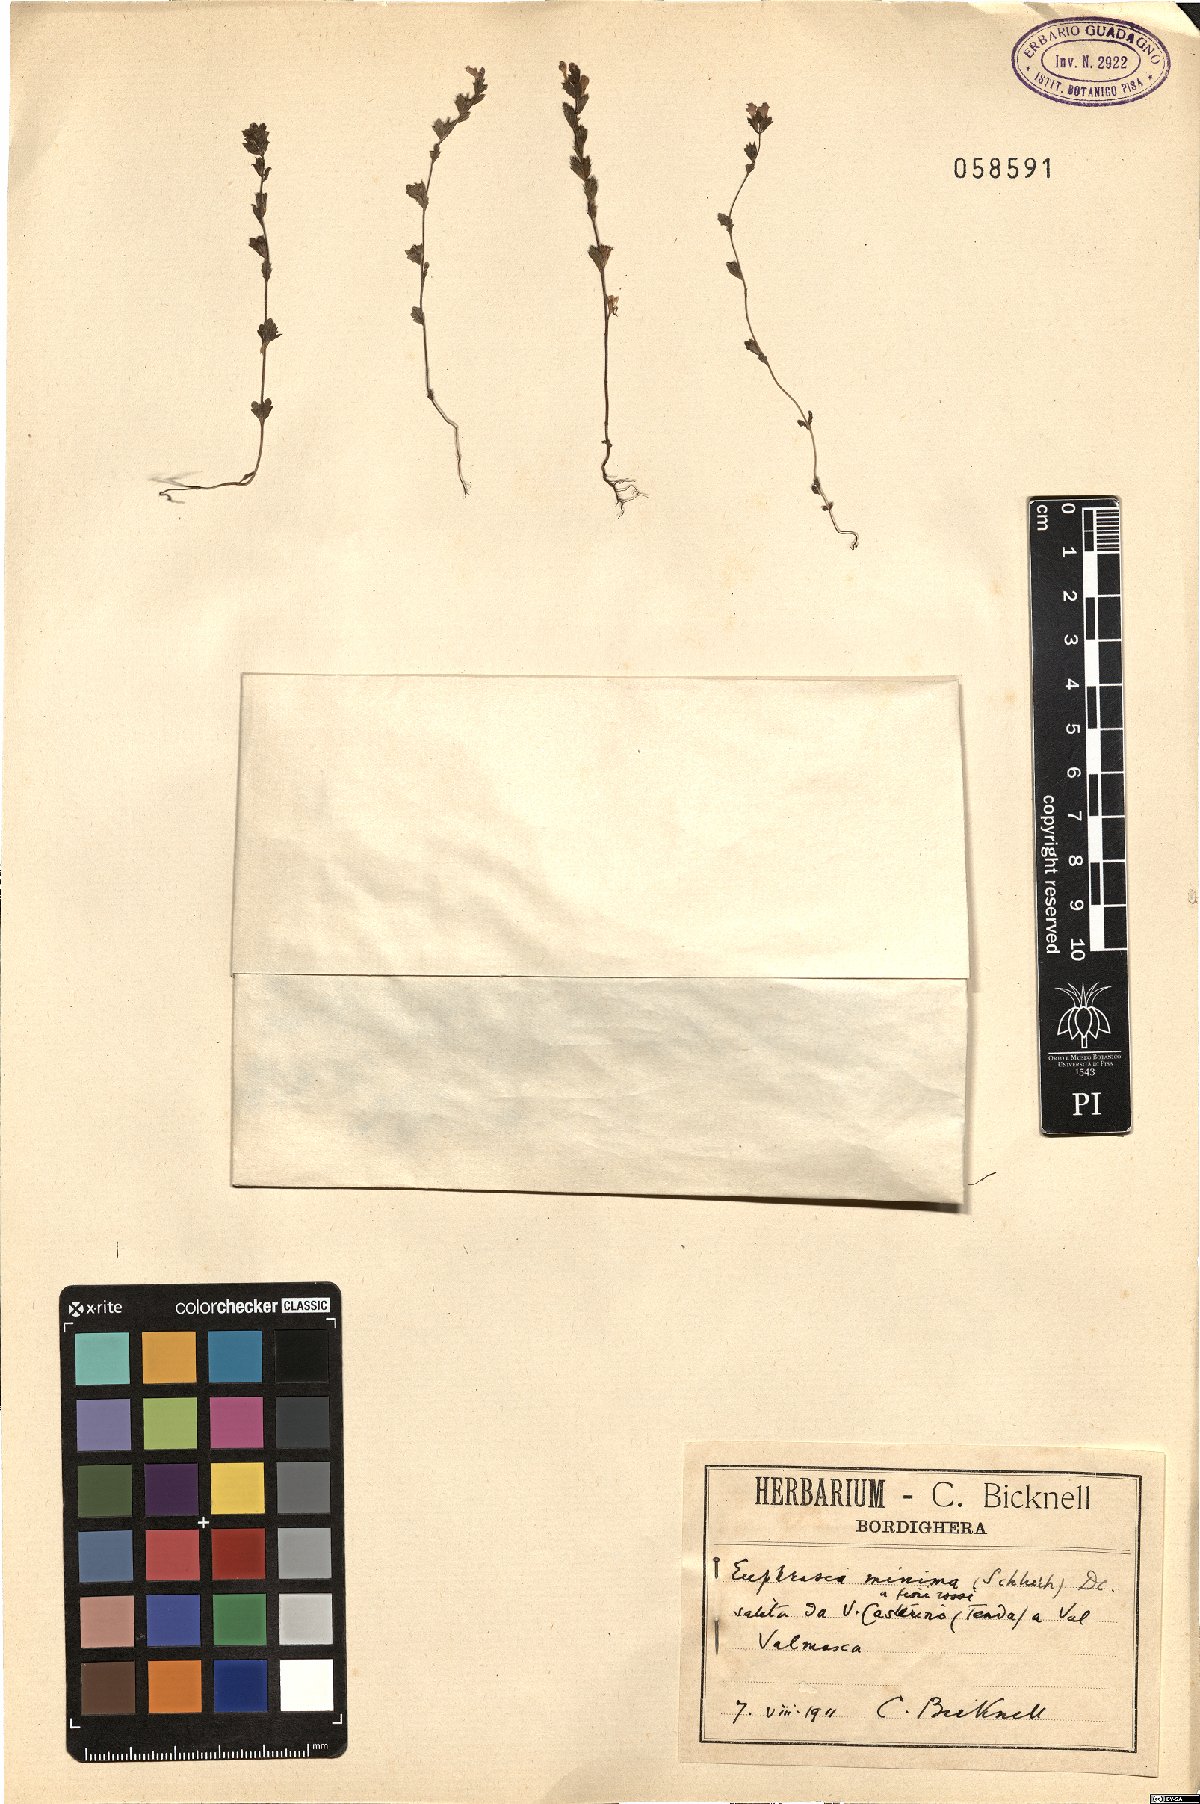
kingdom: Plantae
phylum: Tracheophyta
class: Magnoliopsida
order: Lamiales
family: Orobanchaceae
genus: Euphrasia
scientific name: Euphrasia minima
